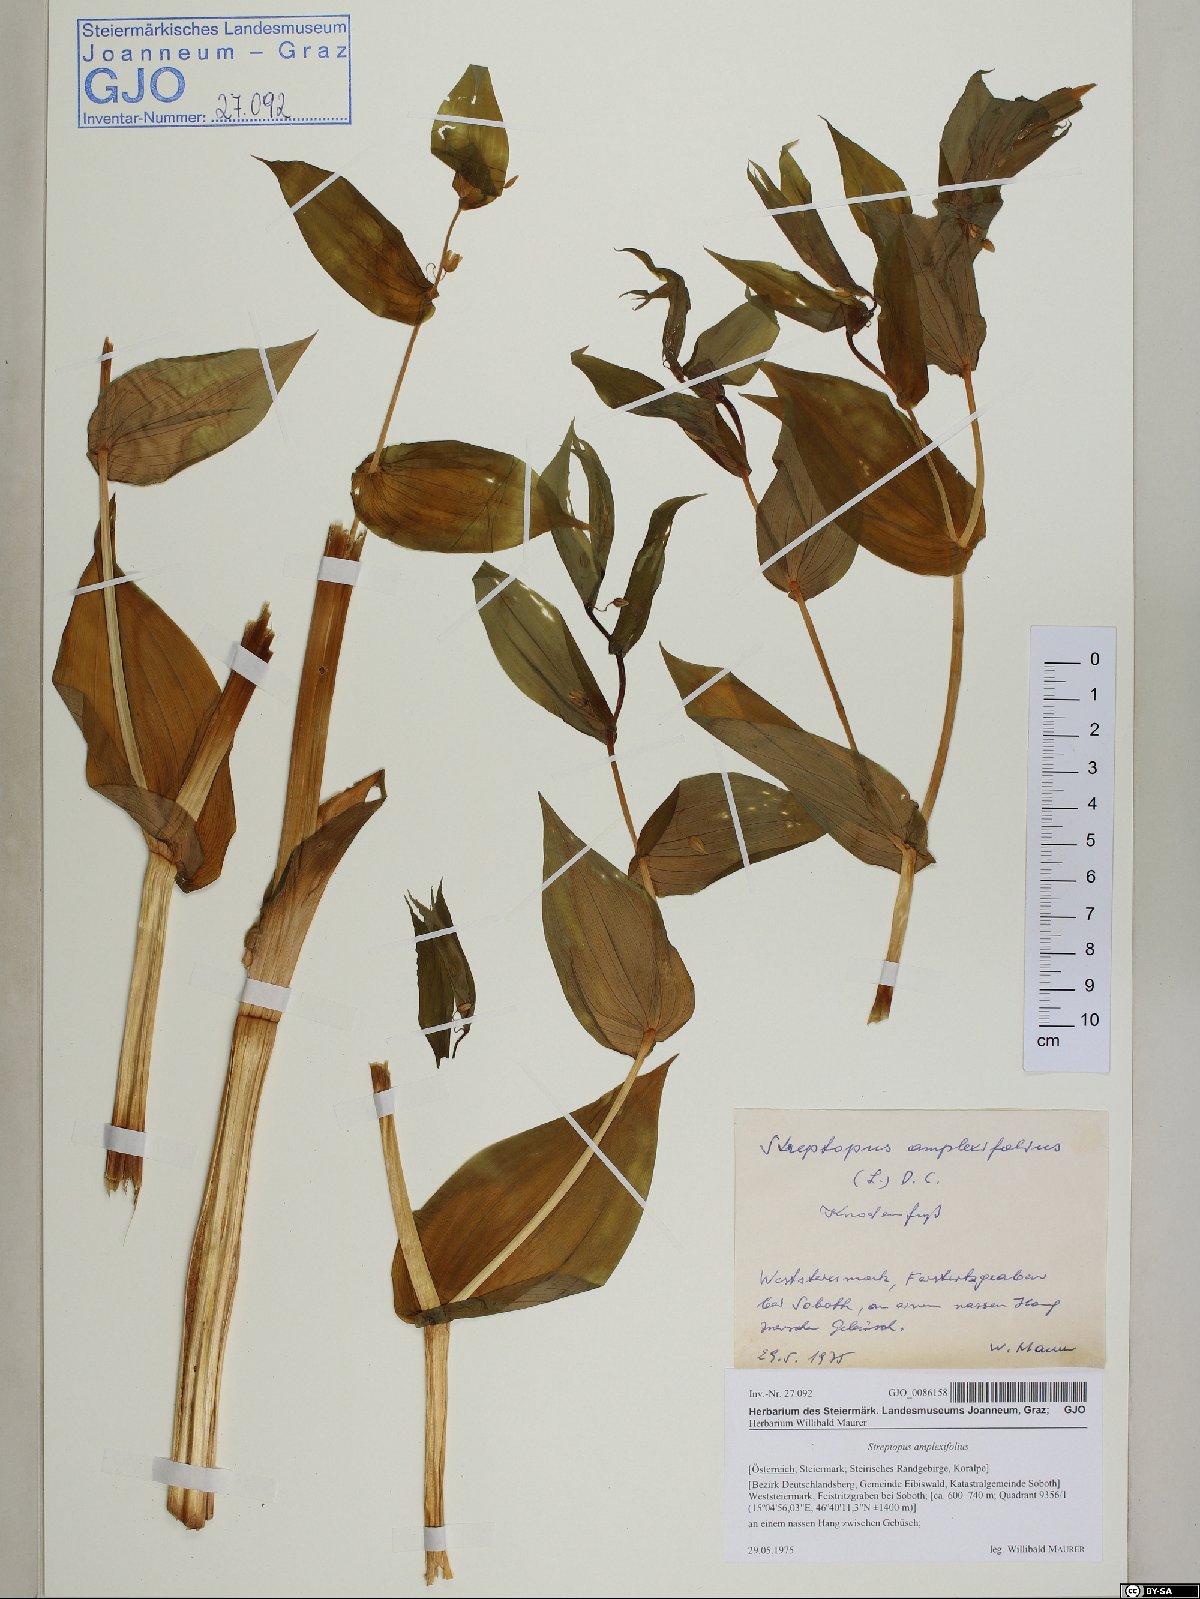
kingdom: Plantae
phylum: Tracheophyta
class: Liliopsida
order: Liliales
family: Liliaceae
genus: Streptopus
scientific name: Streptopus amplexifolius
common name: Clasp twisted stalk
